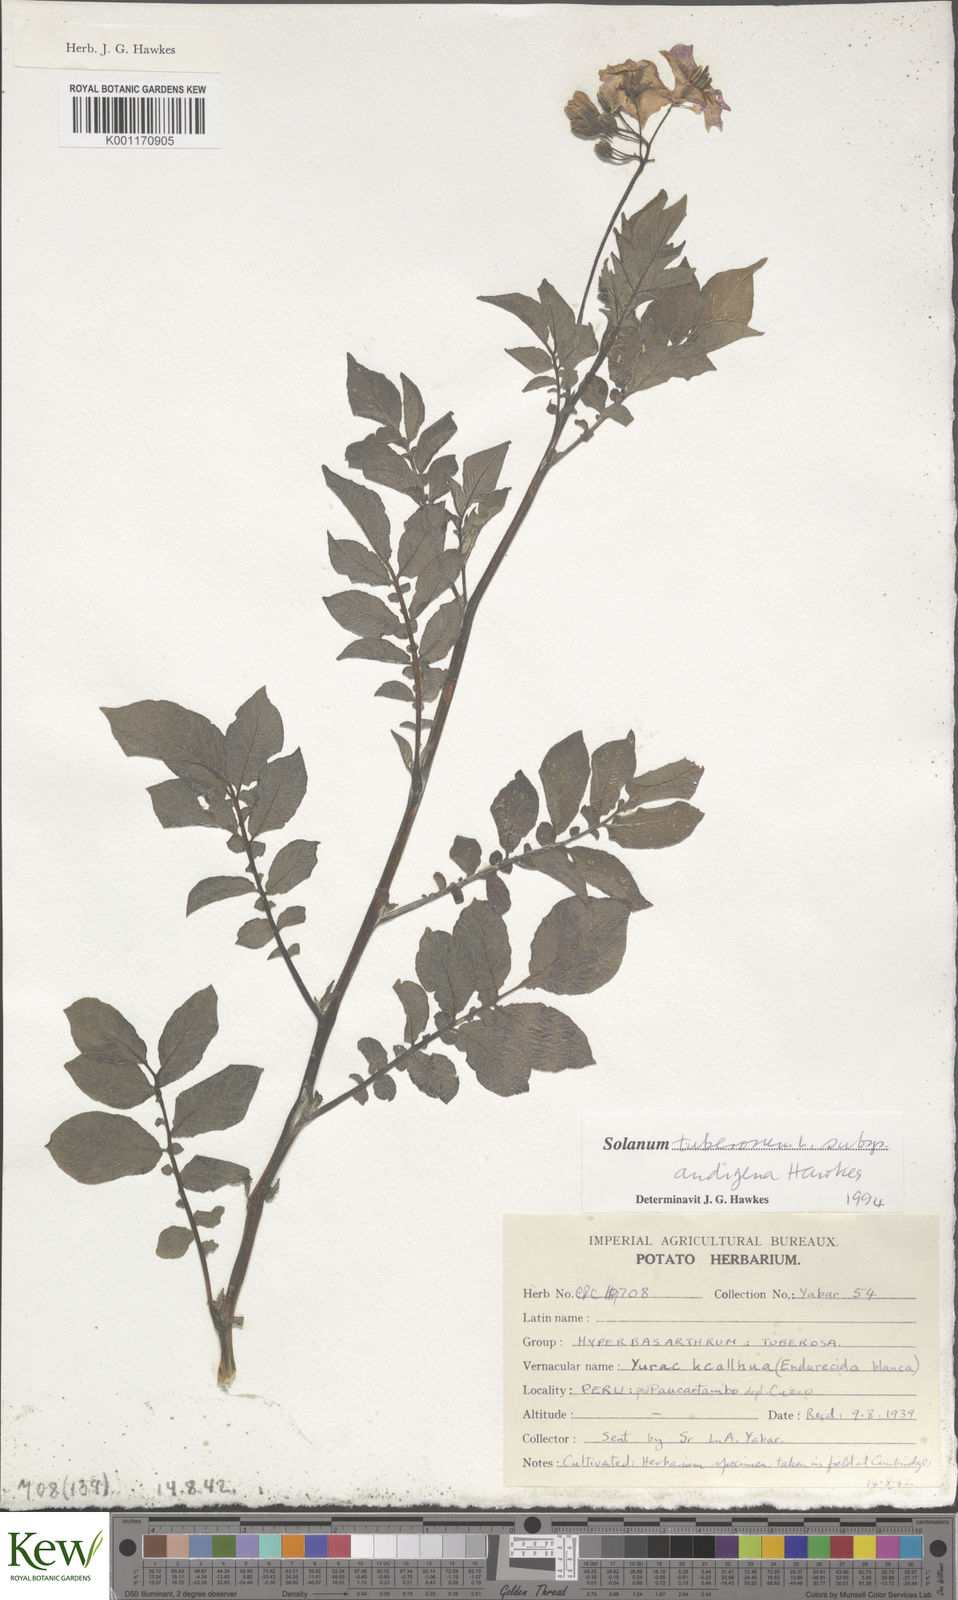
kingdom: Plantae
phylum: Tracheophyta
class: Magnoliopsida
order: Solanales
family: Solanaceae
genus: Solanum
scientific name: Solanum tuberosum
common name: Potato
